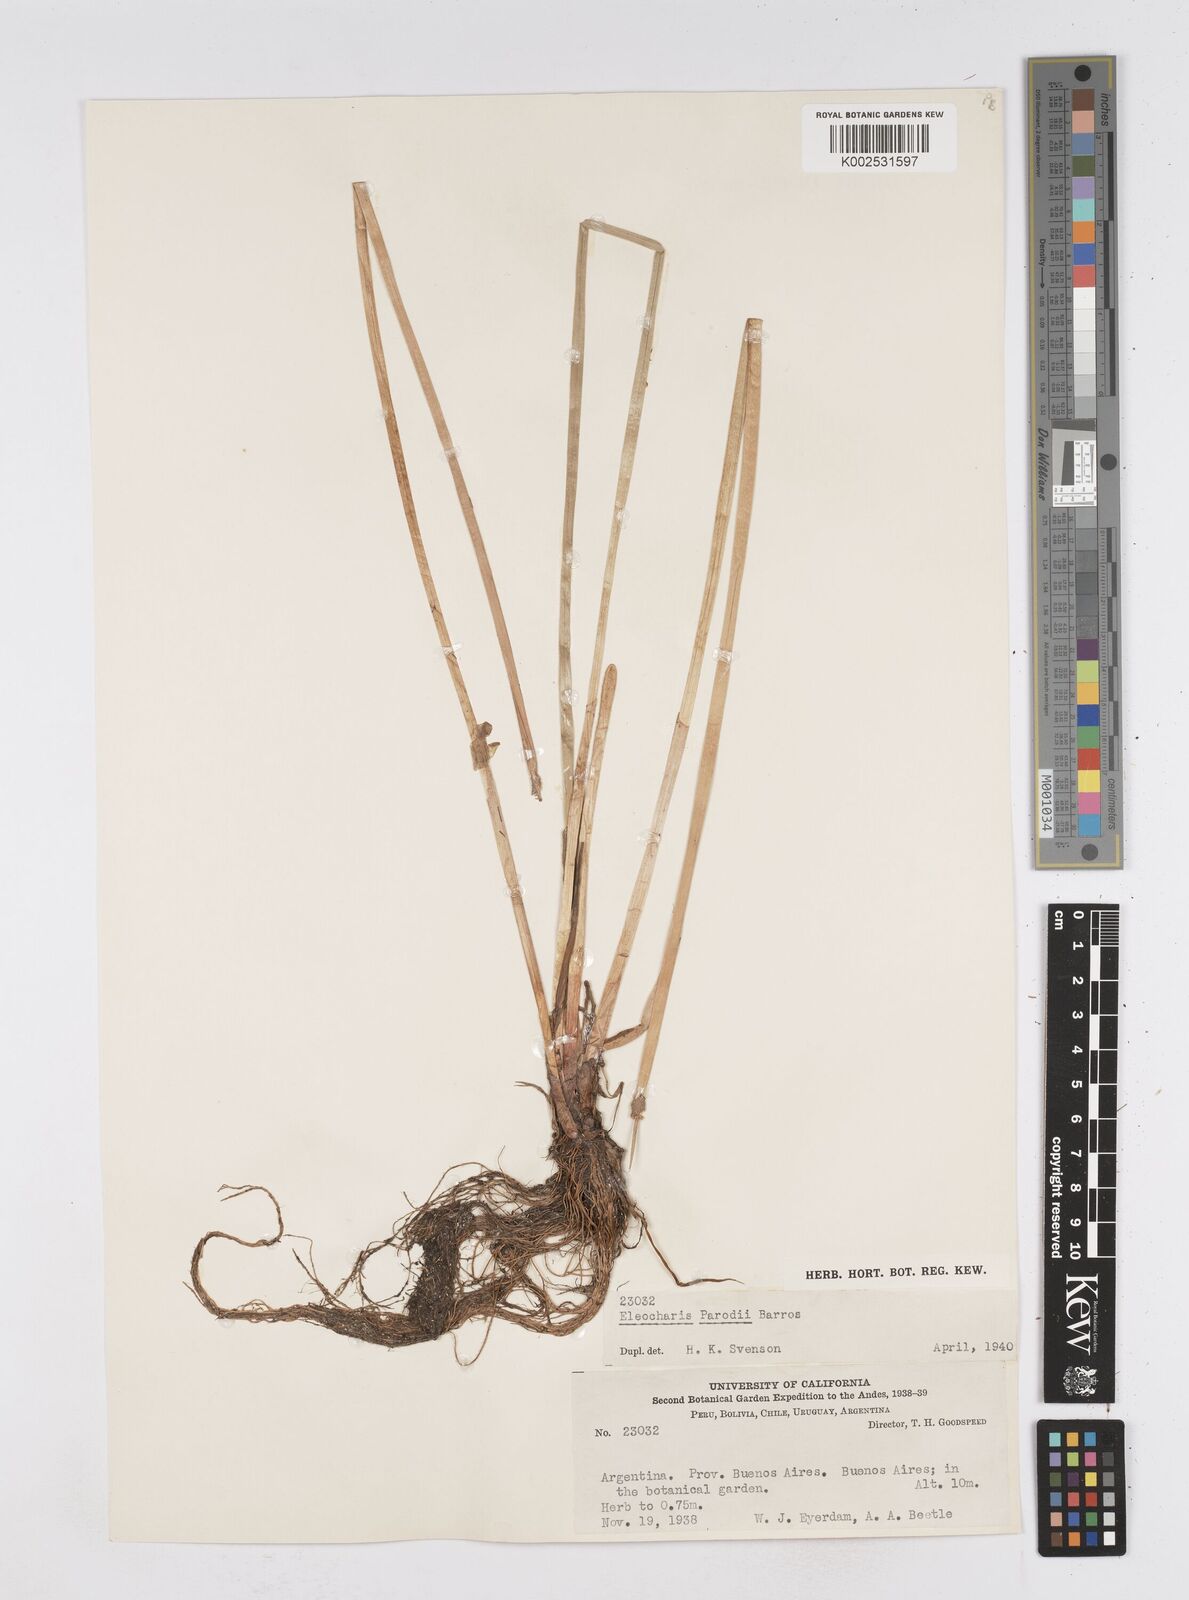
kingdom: Plantae
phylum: Tracheophyta
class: Liliopsida
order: Poales
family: Cyperaceae
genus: Eleocharis
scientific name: Eleocharis parodii
